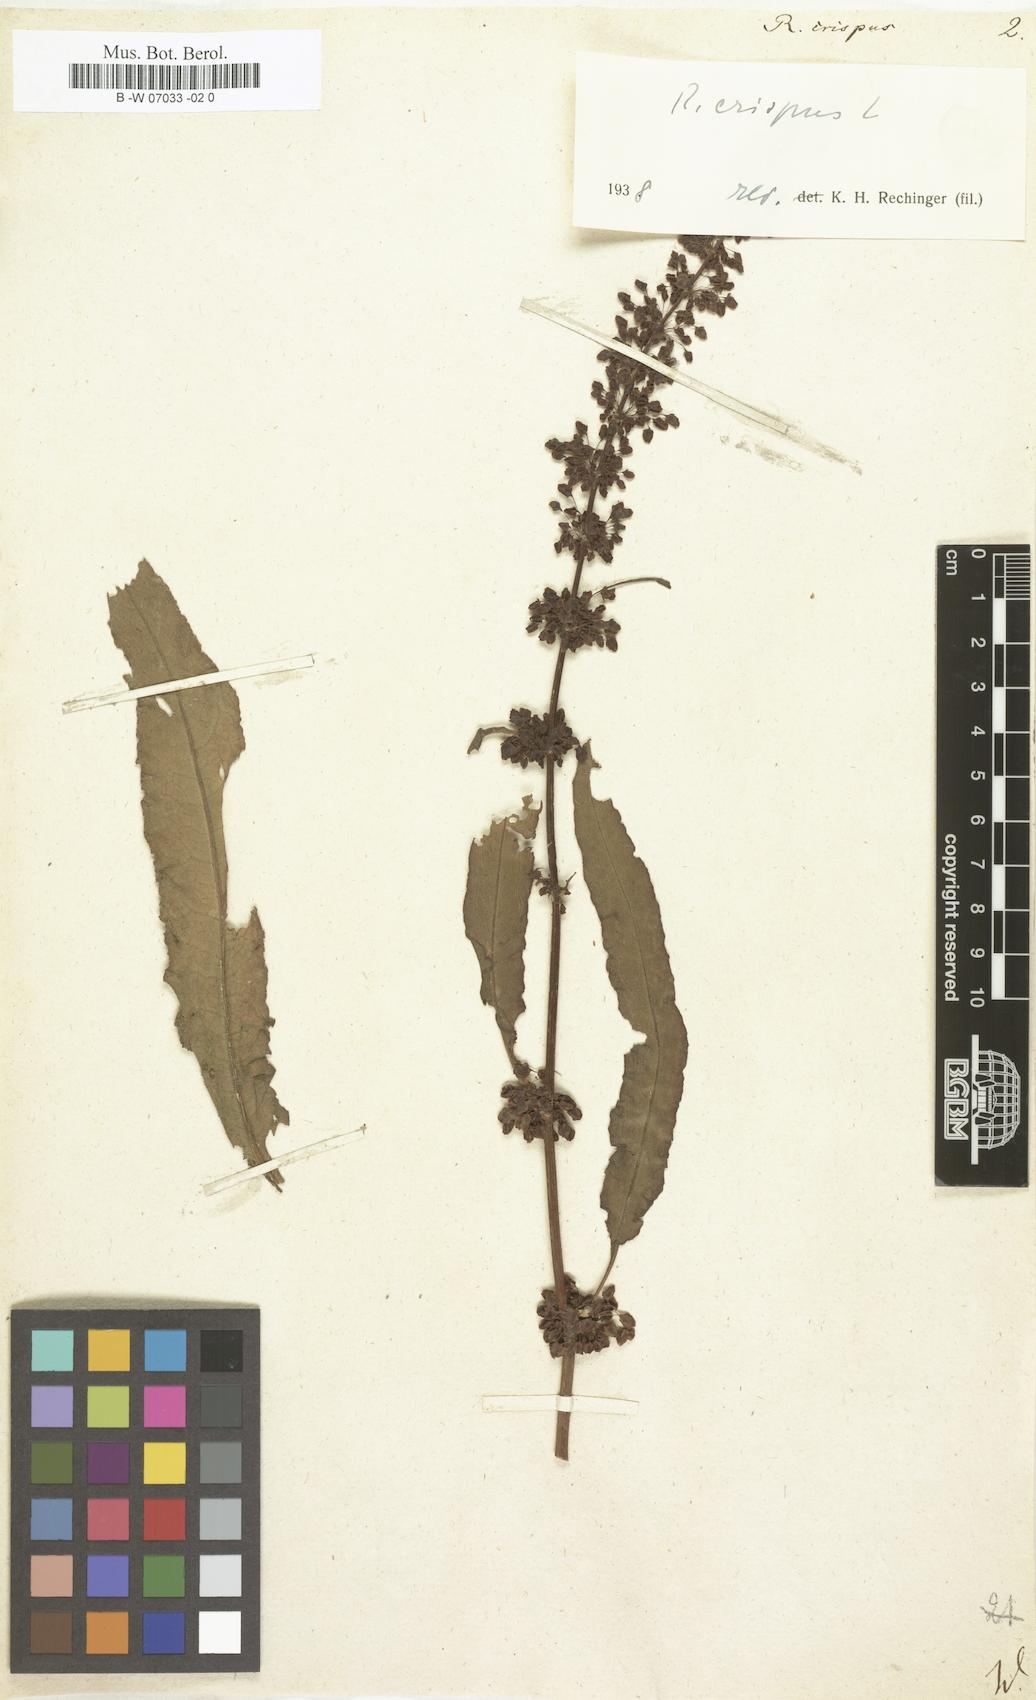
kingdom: Plantae
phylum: Tracheophyta
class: Magnoliopsida
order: Caryophyllales
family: Polygonaceae
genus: Rumex
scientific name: Rumex crispus
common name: Curled dock
